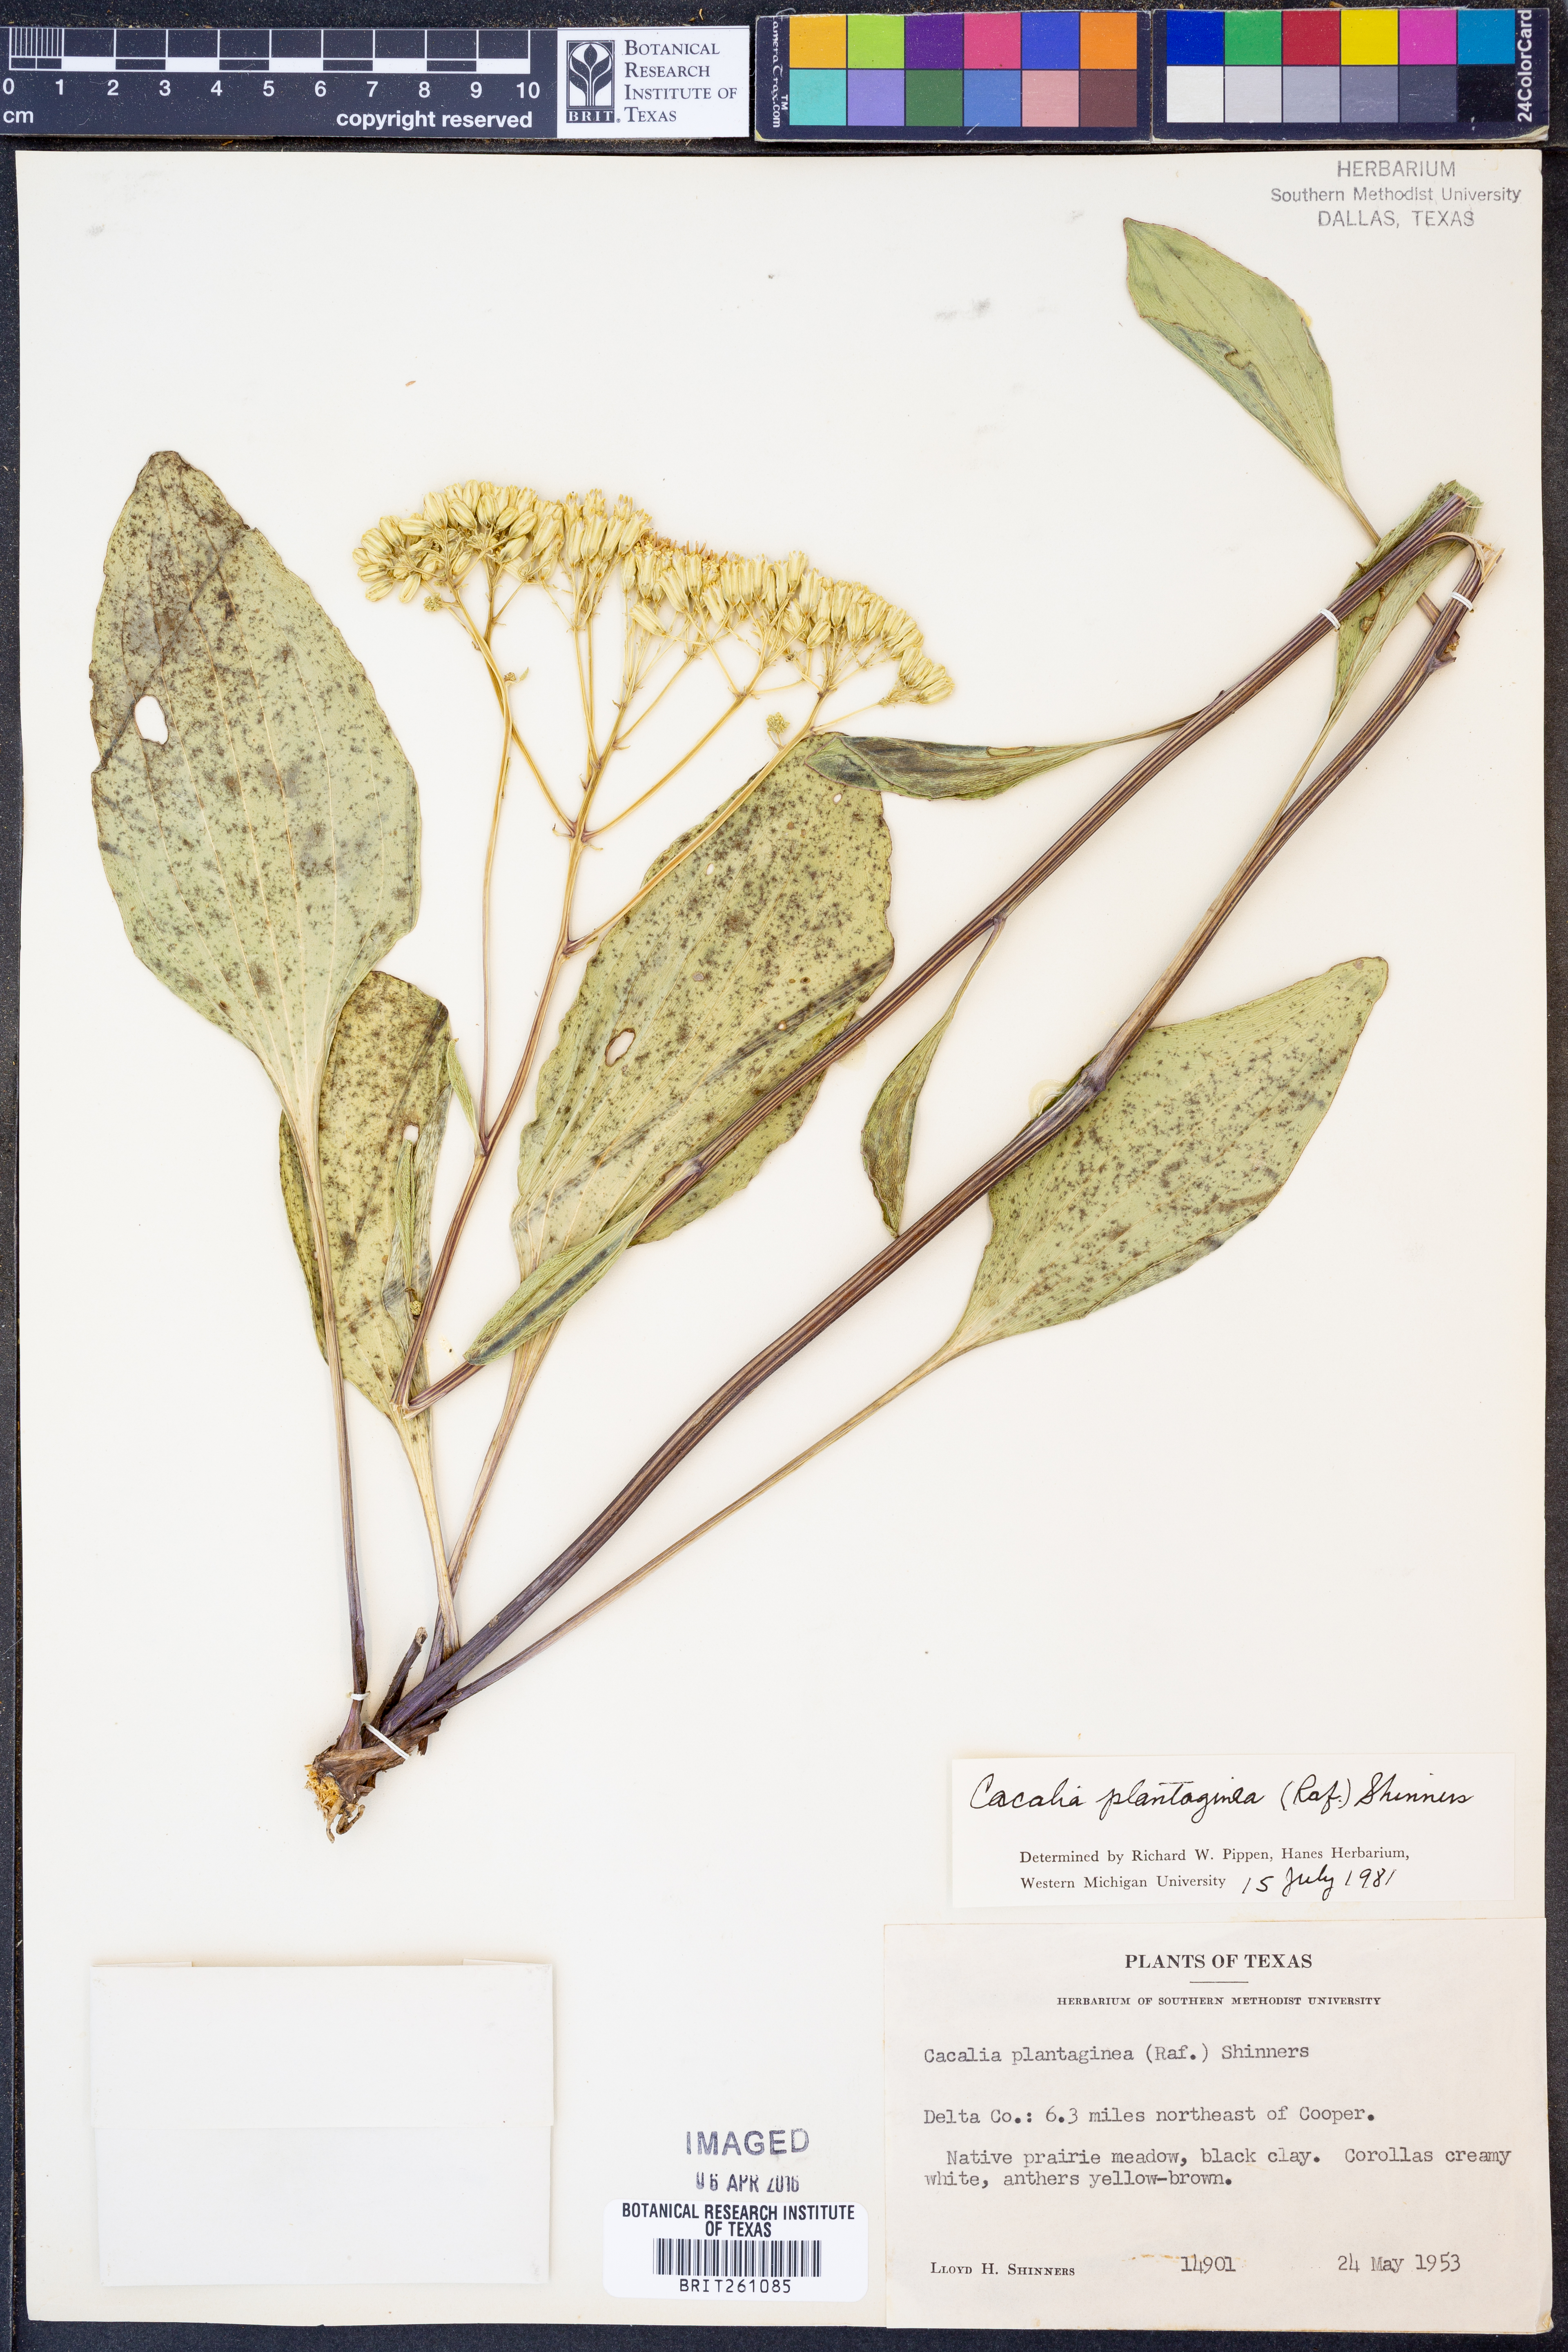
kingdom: Plantae
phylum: Tracheophyta
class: Magnoliopsida
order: Asterales
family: Asteraceae
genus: Arnoglossum
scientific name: Arnoglossum plantagineum
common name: Groove-stemmed indian-plantain
